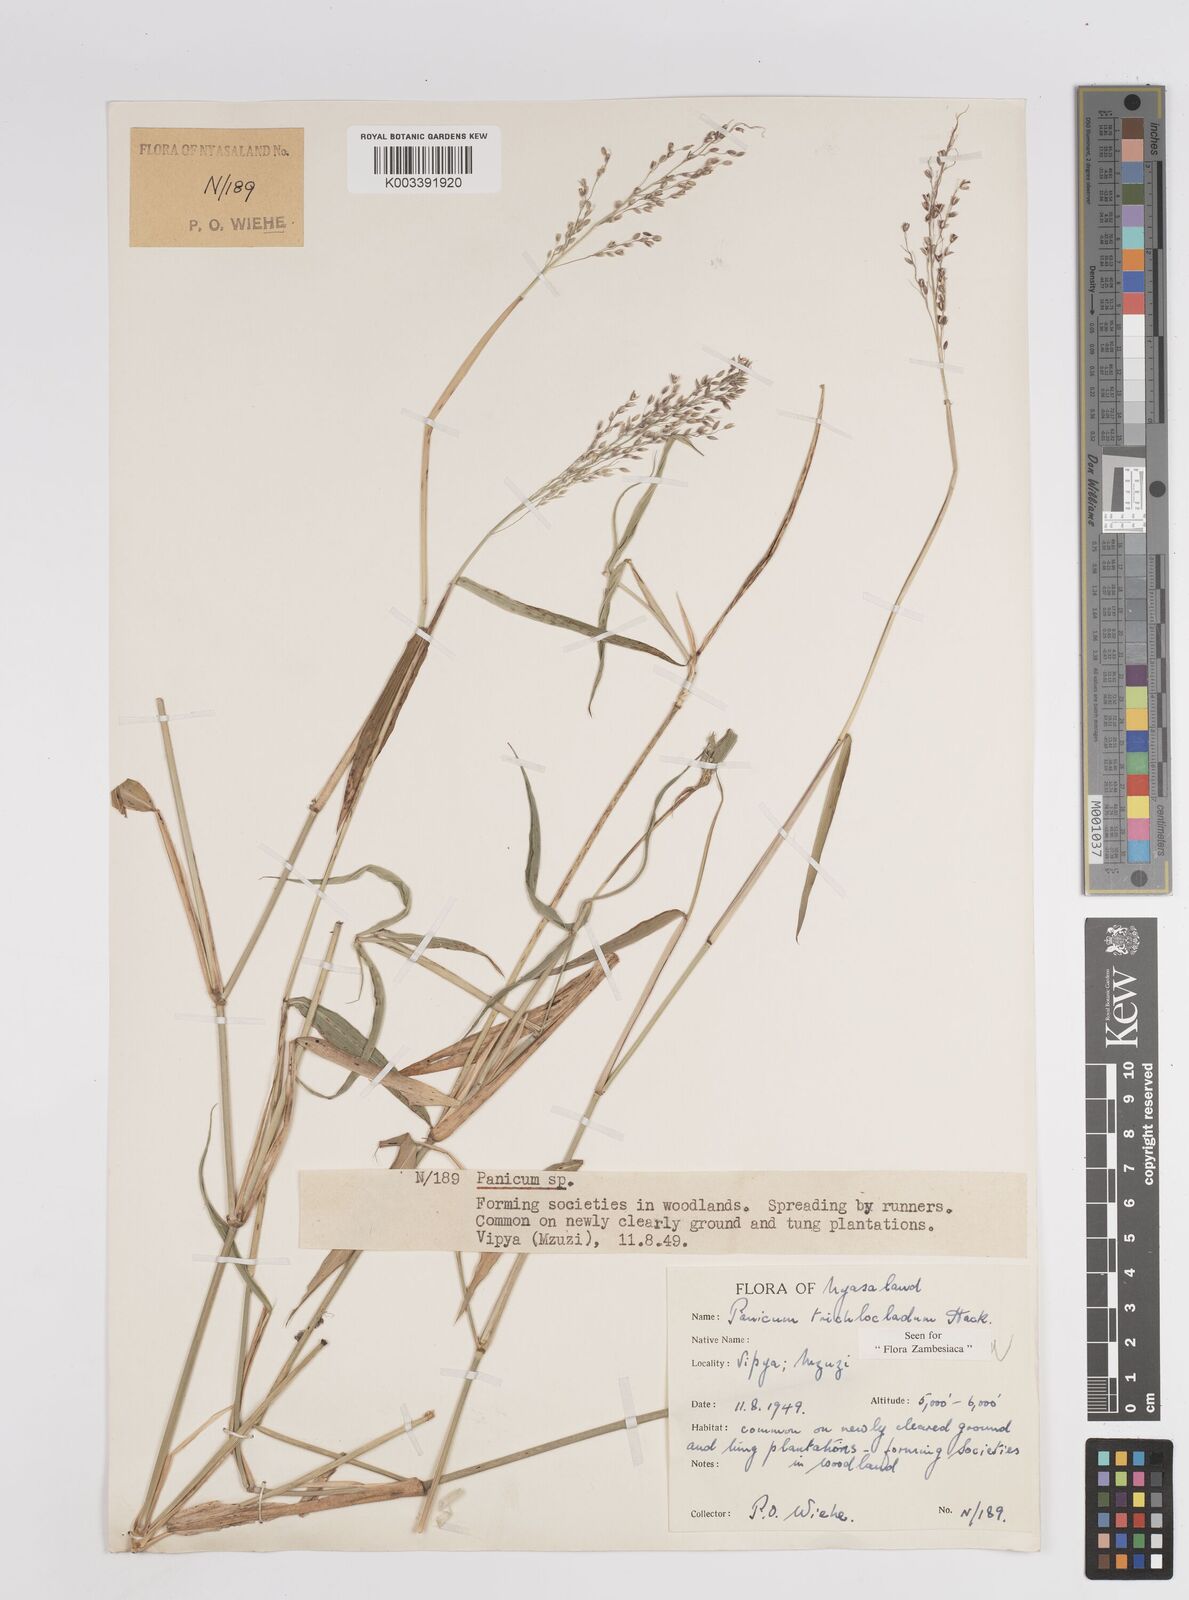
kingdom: Plantae
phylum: Tracheophyta
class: Liliopsida
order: Poales
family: Poaceae
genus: Panicum
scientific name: Panicum trichocladum
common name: Donkey grass
